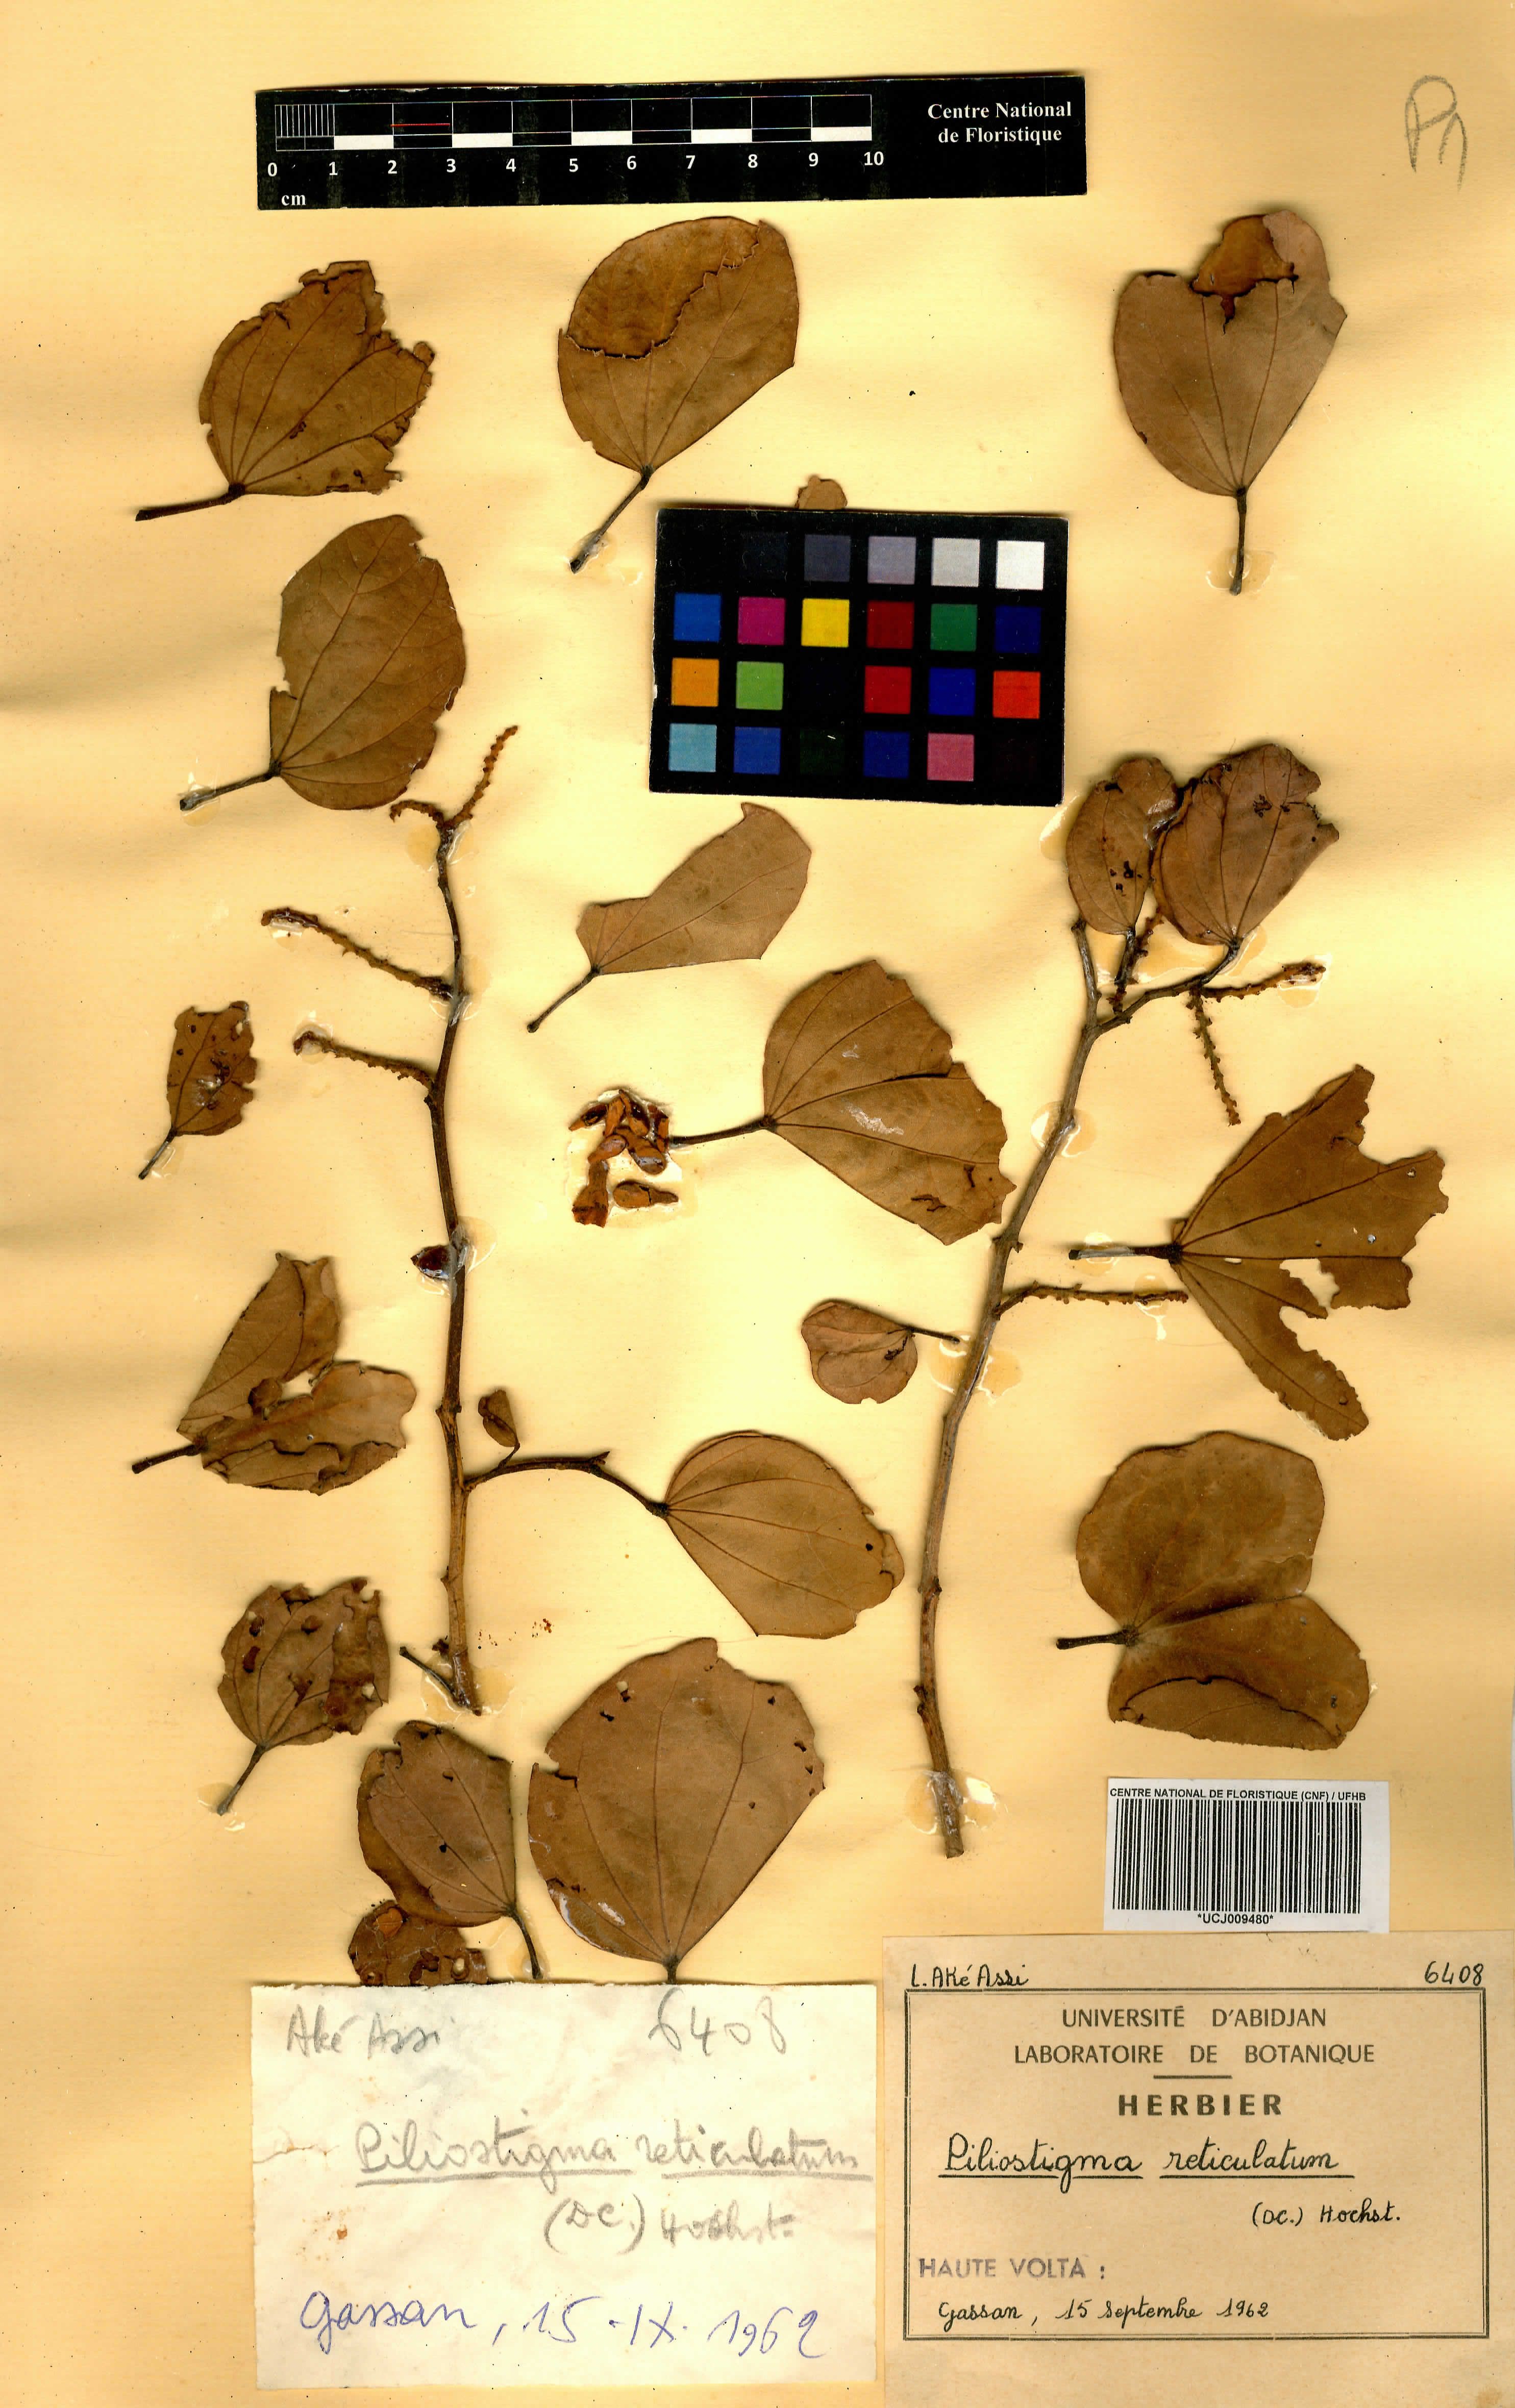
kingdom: Plantae
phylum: Tracheophyta
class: Magnoliopsida
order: Fabales
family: Fabaceae
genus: Piliostigma
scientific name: Piliostigma reticulatum
